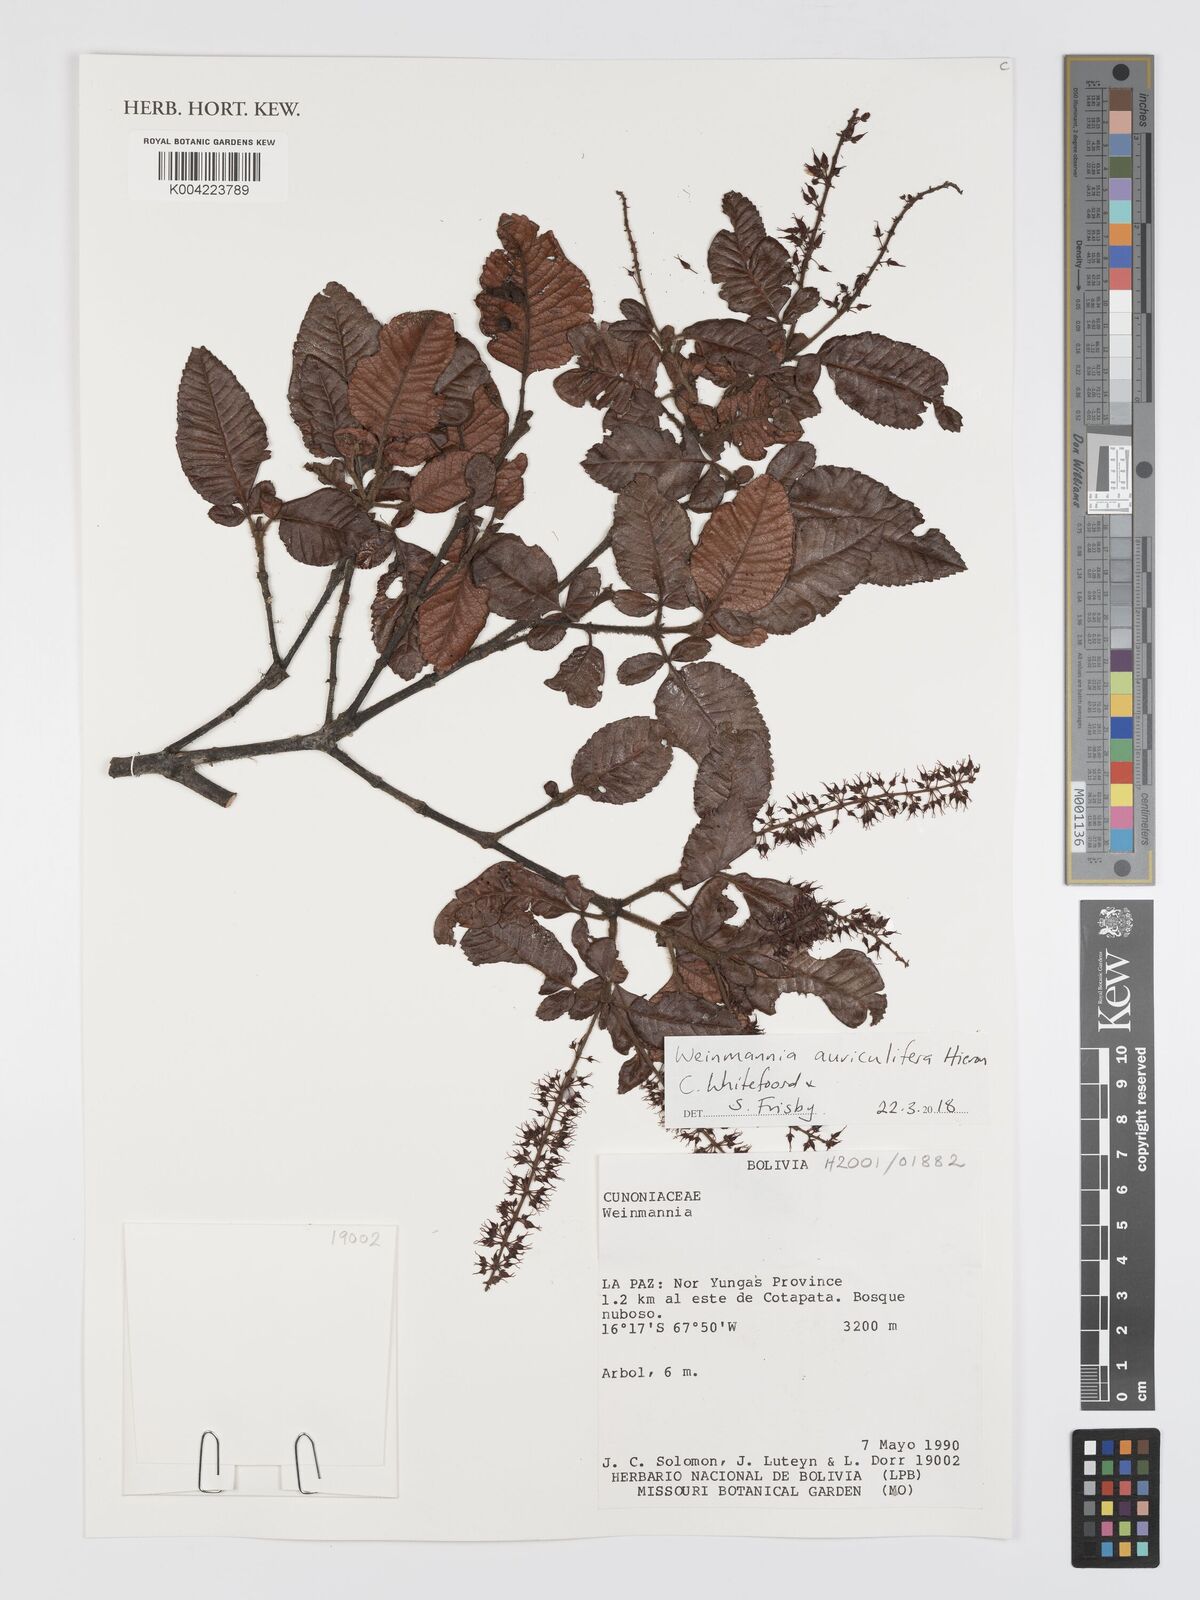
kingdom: Plantae
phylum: Tracheophyta
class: Magnoliopsida
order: Oxalidales
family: Cunoniaceae
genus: Weinmannia
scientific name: Weinmannia cordata
